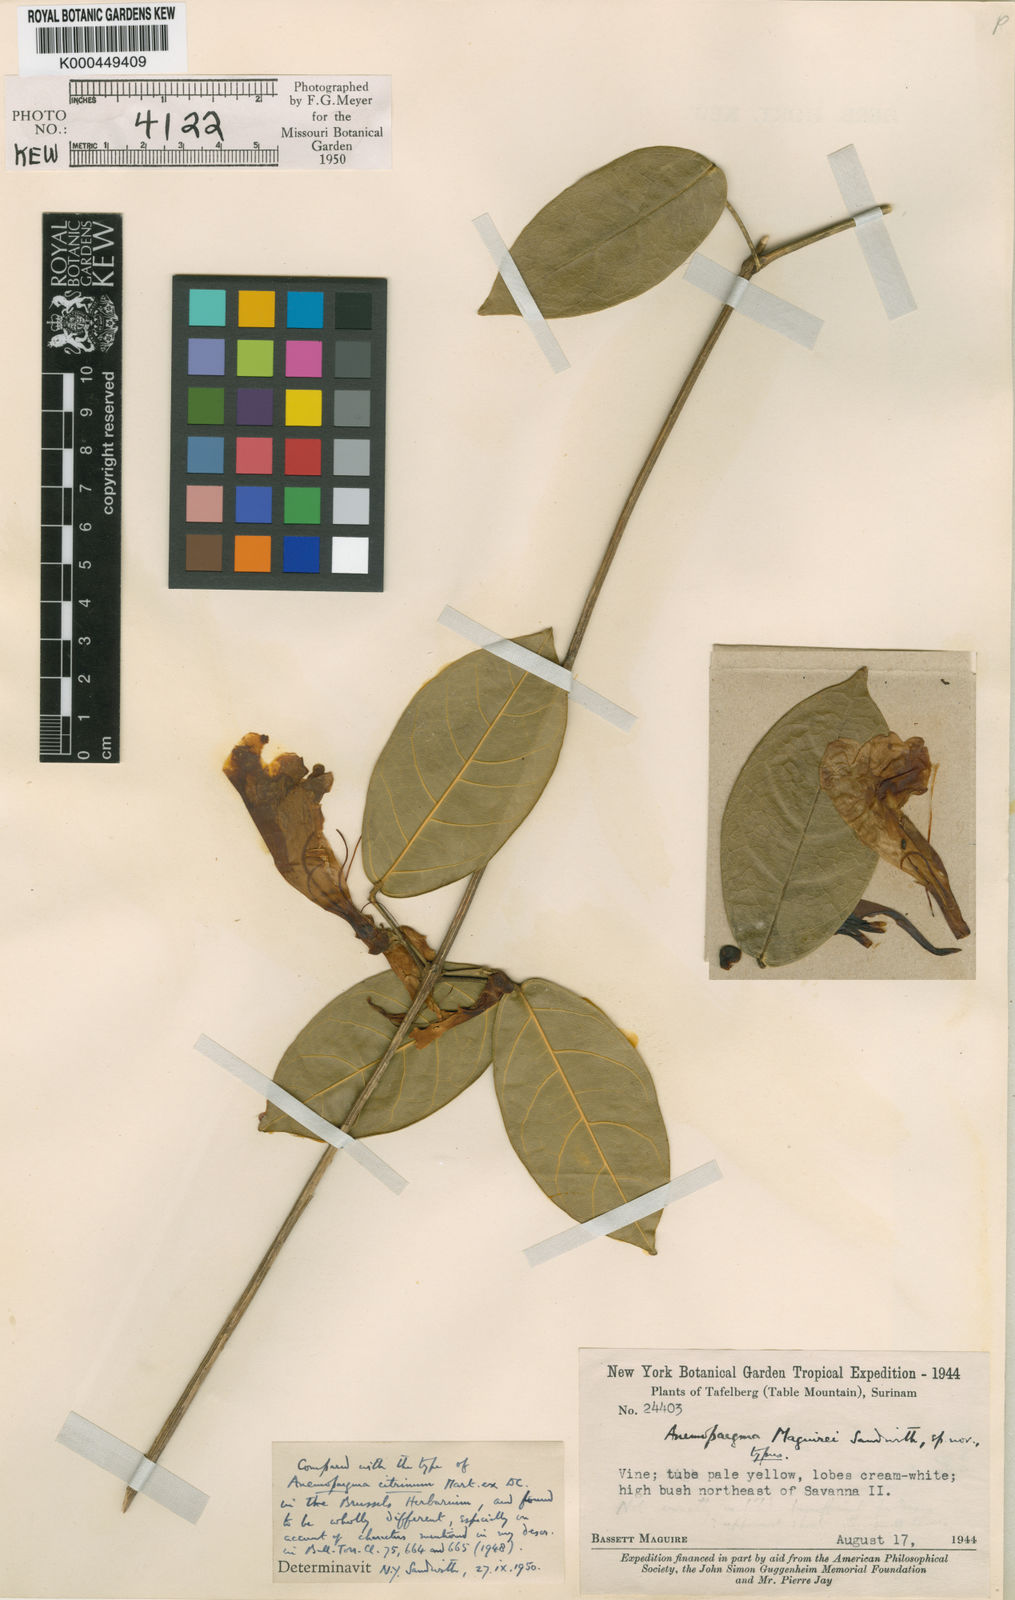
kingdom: Plantae
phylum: Tracheophyta
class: Magnoliopsida
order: Lamiales
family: Bignoniaceae
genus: Anemopaegma
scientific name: Anemopaegma foetidum
